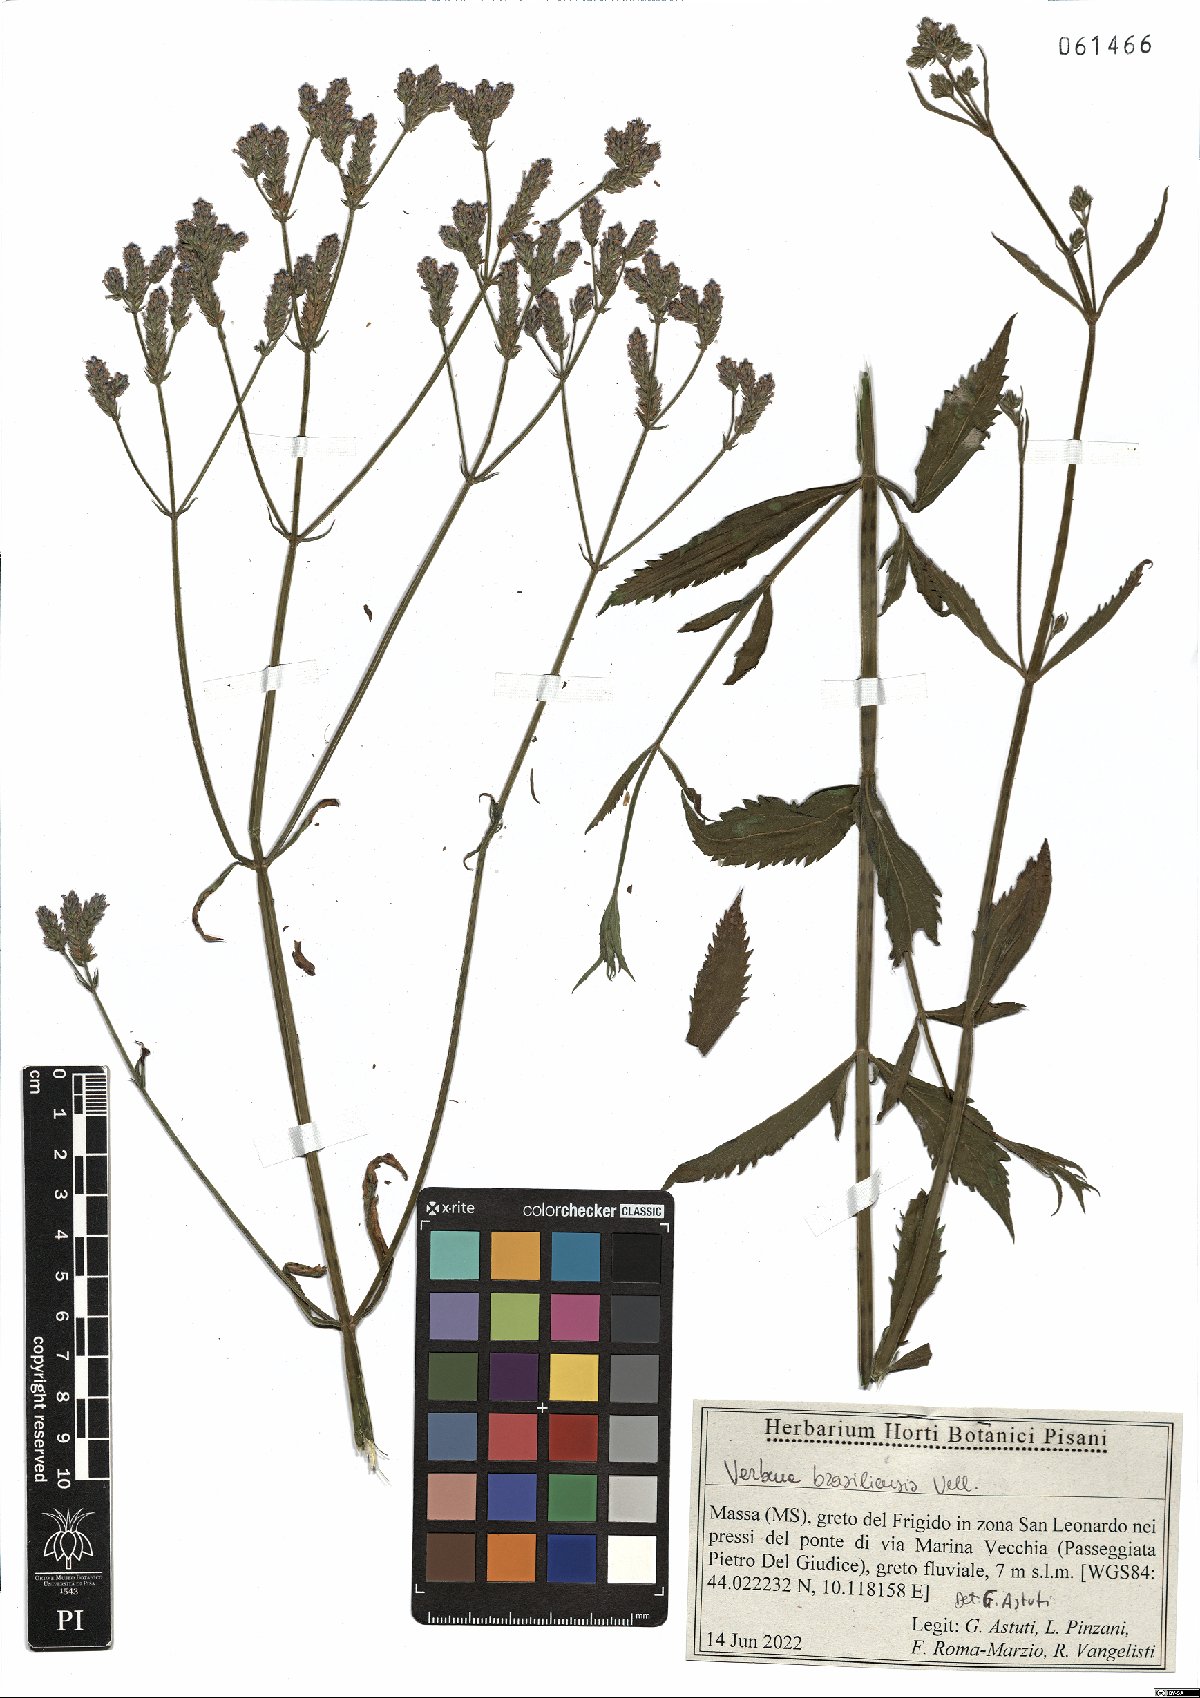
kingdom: Plantae
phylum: Tracheophyta
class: Magnoliopsida
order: Lamiales
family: Verbenaceae
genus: Verbena
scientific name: Verbena brasiliensis
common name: Brazilian vervain
